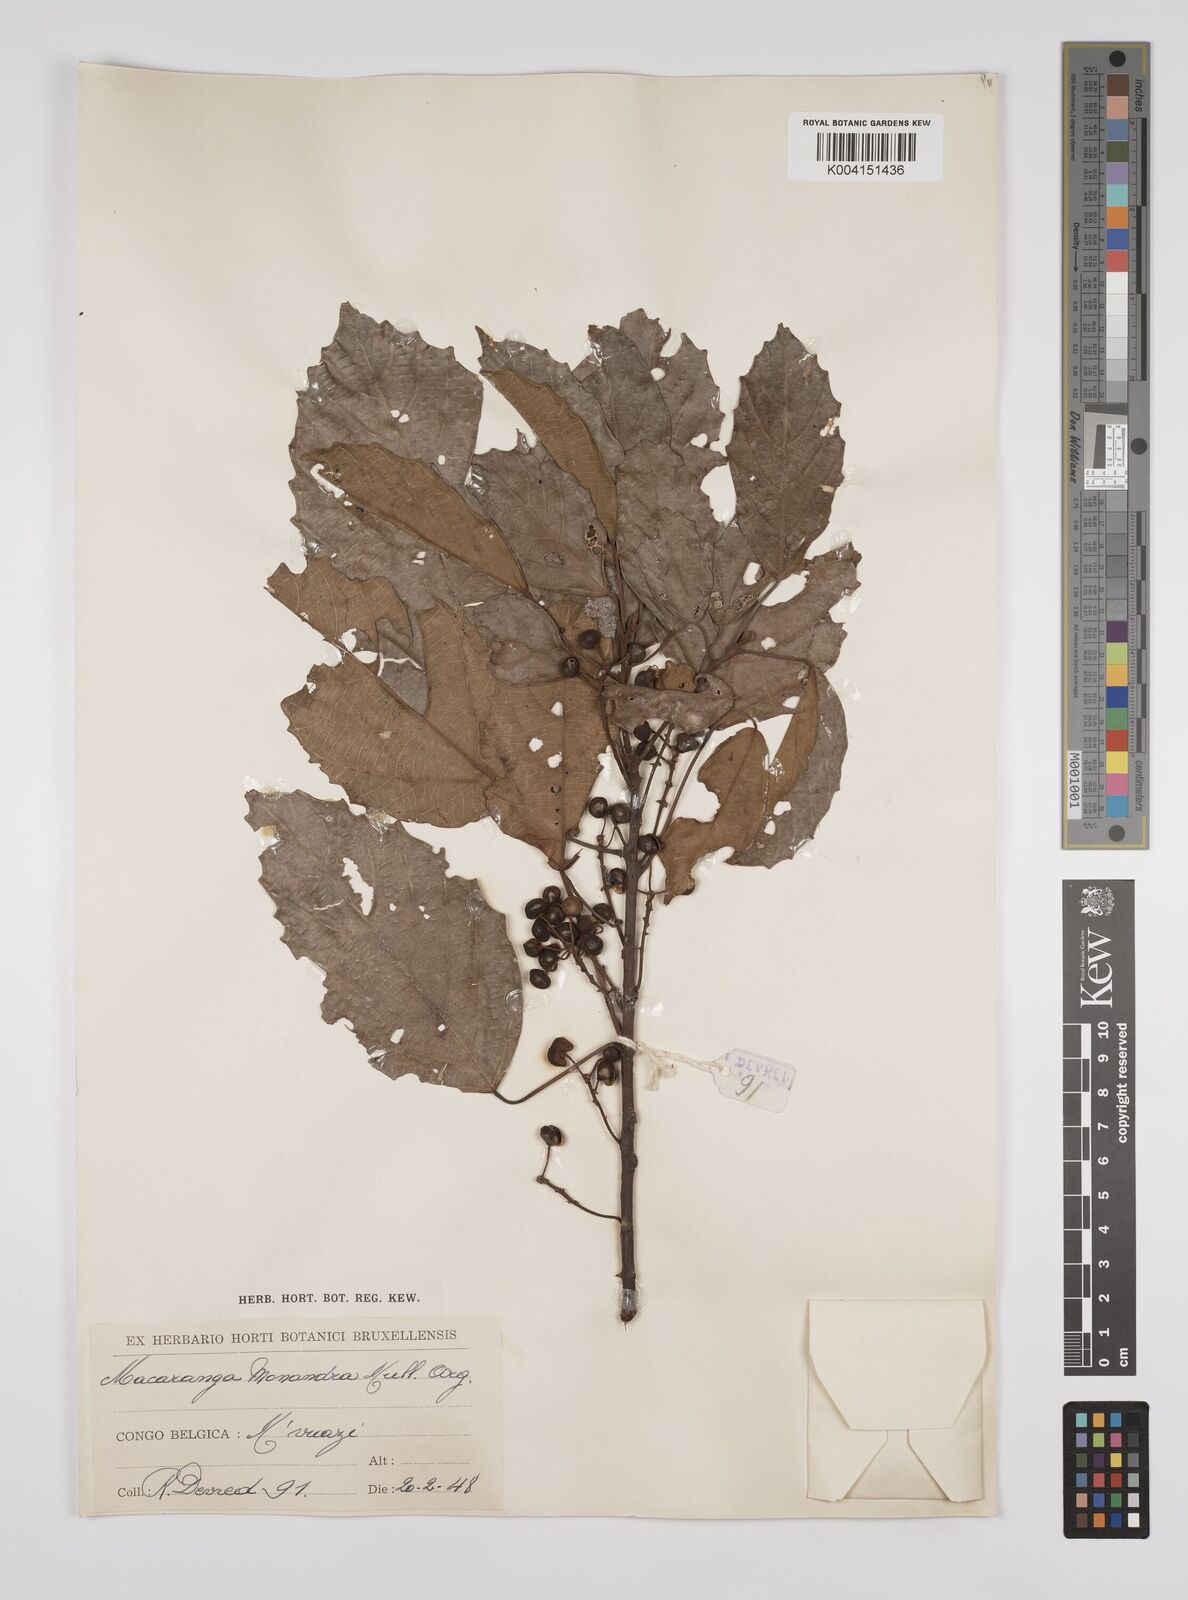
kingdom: Plantae
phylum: Tracheophyta
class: Magnoliopsida
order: Malpighiales
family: Euphorbiaceae
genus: Macaranga
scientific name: Macaranga monandra
